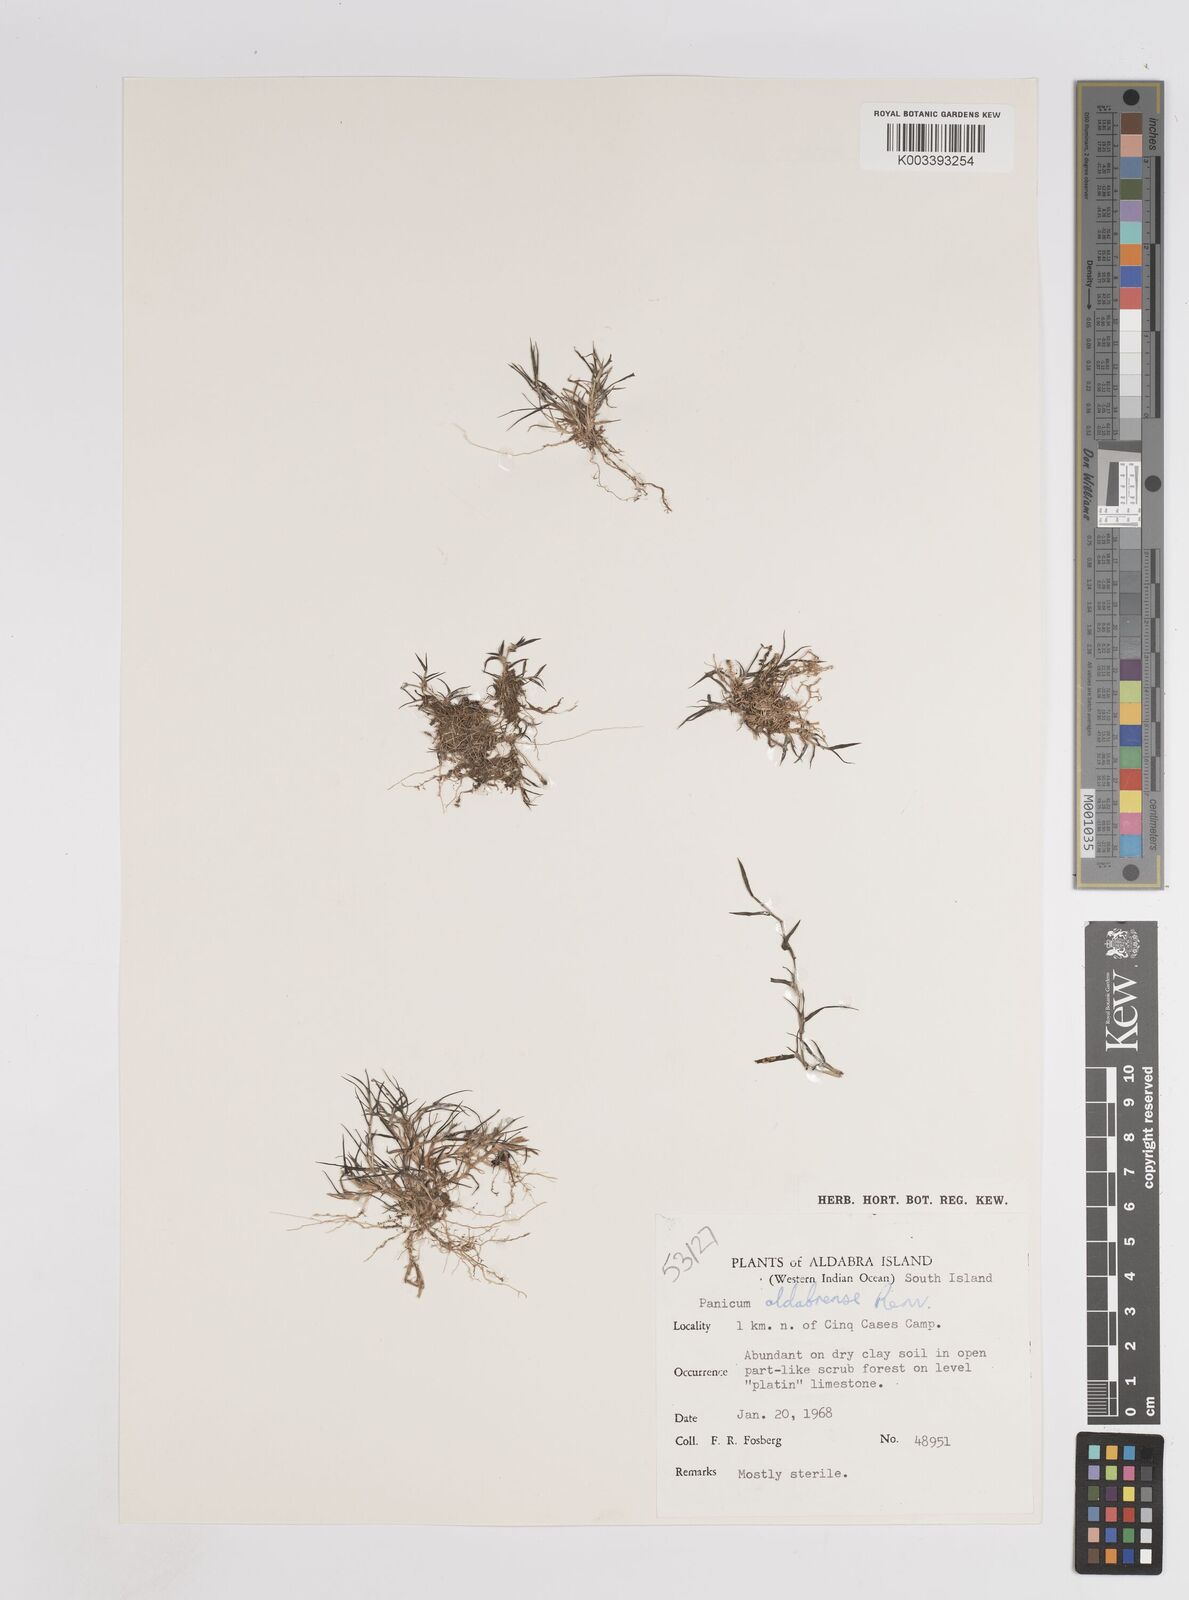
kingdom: Plantae
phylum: Tracheophyta
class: Liliopsida
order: Poales
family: Poaceae
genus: Panicum
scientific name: Panicum aldabrense
